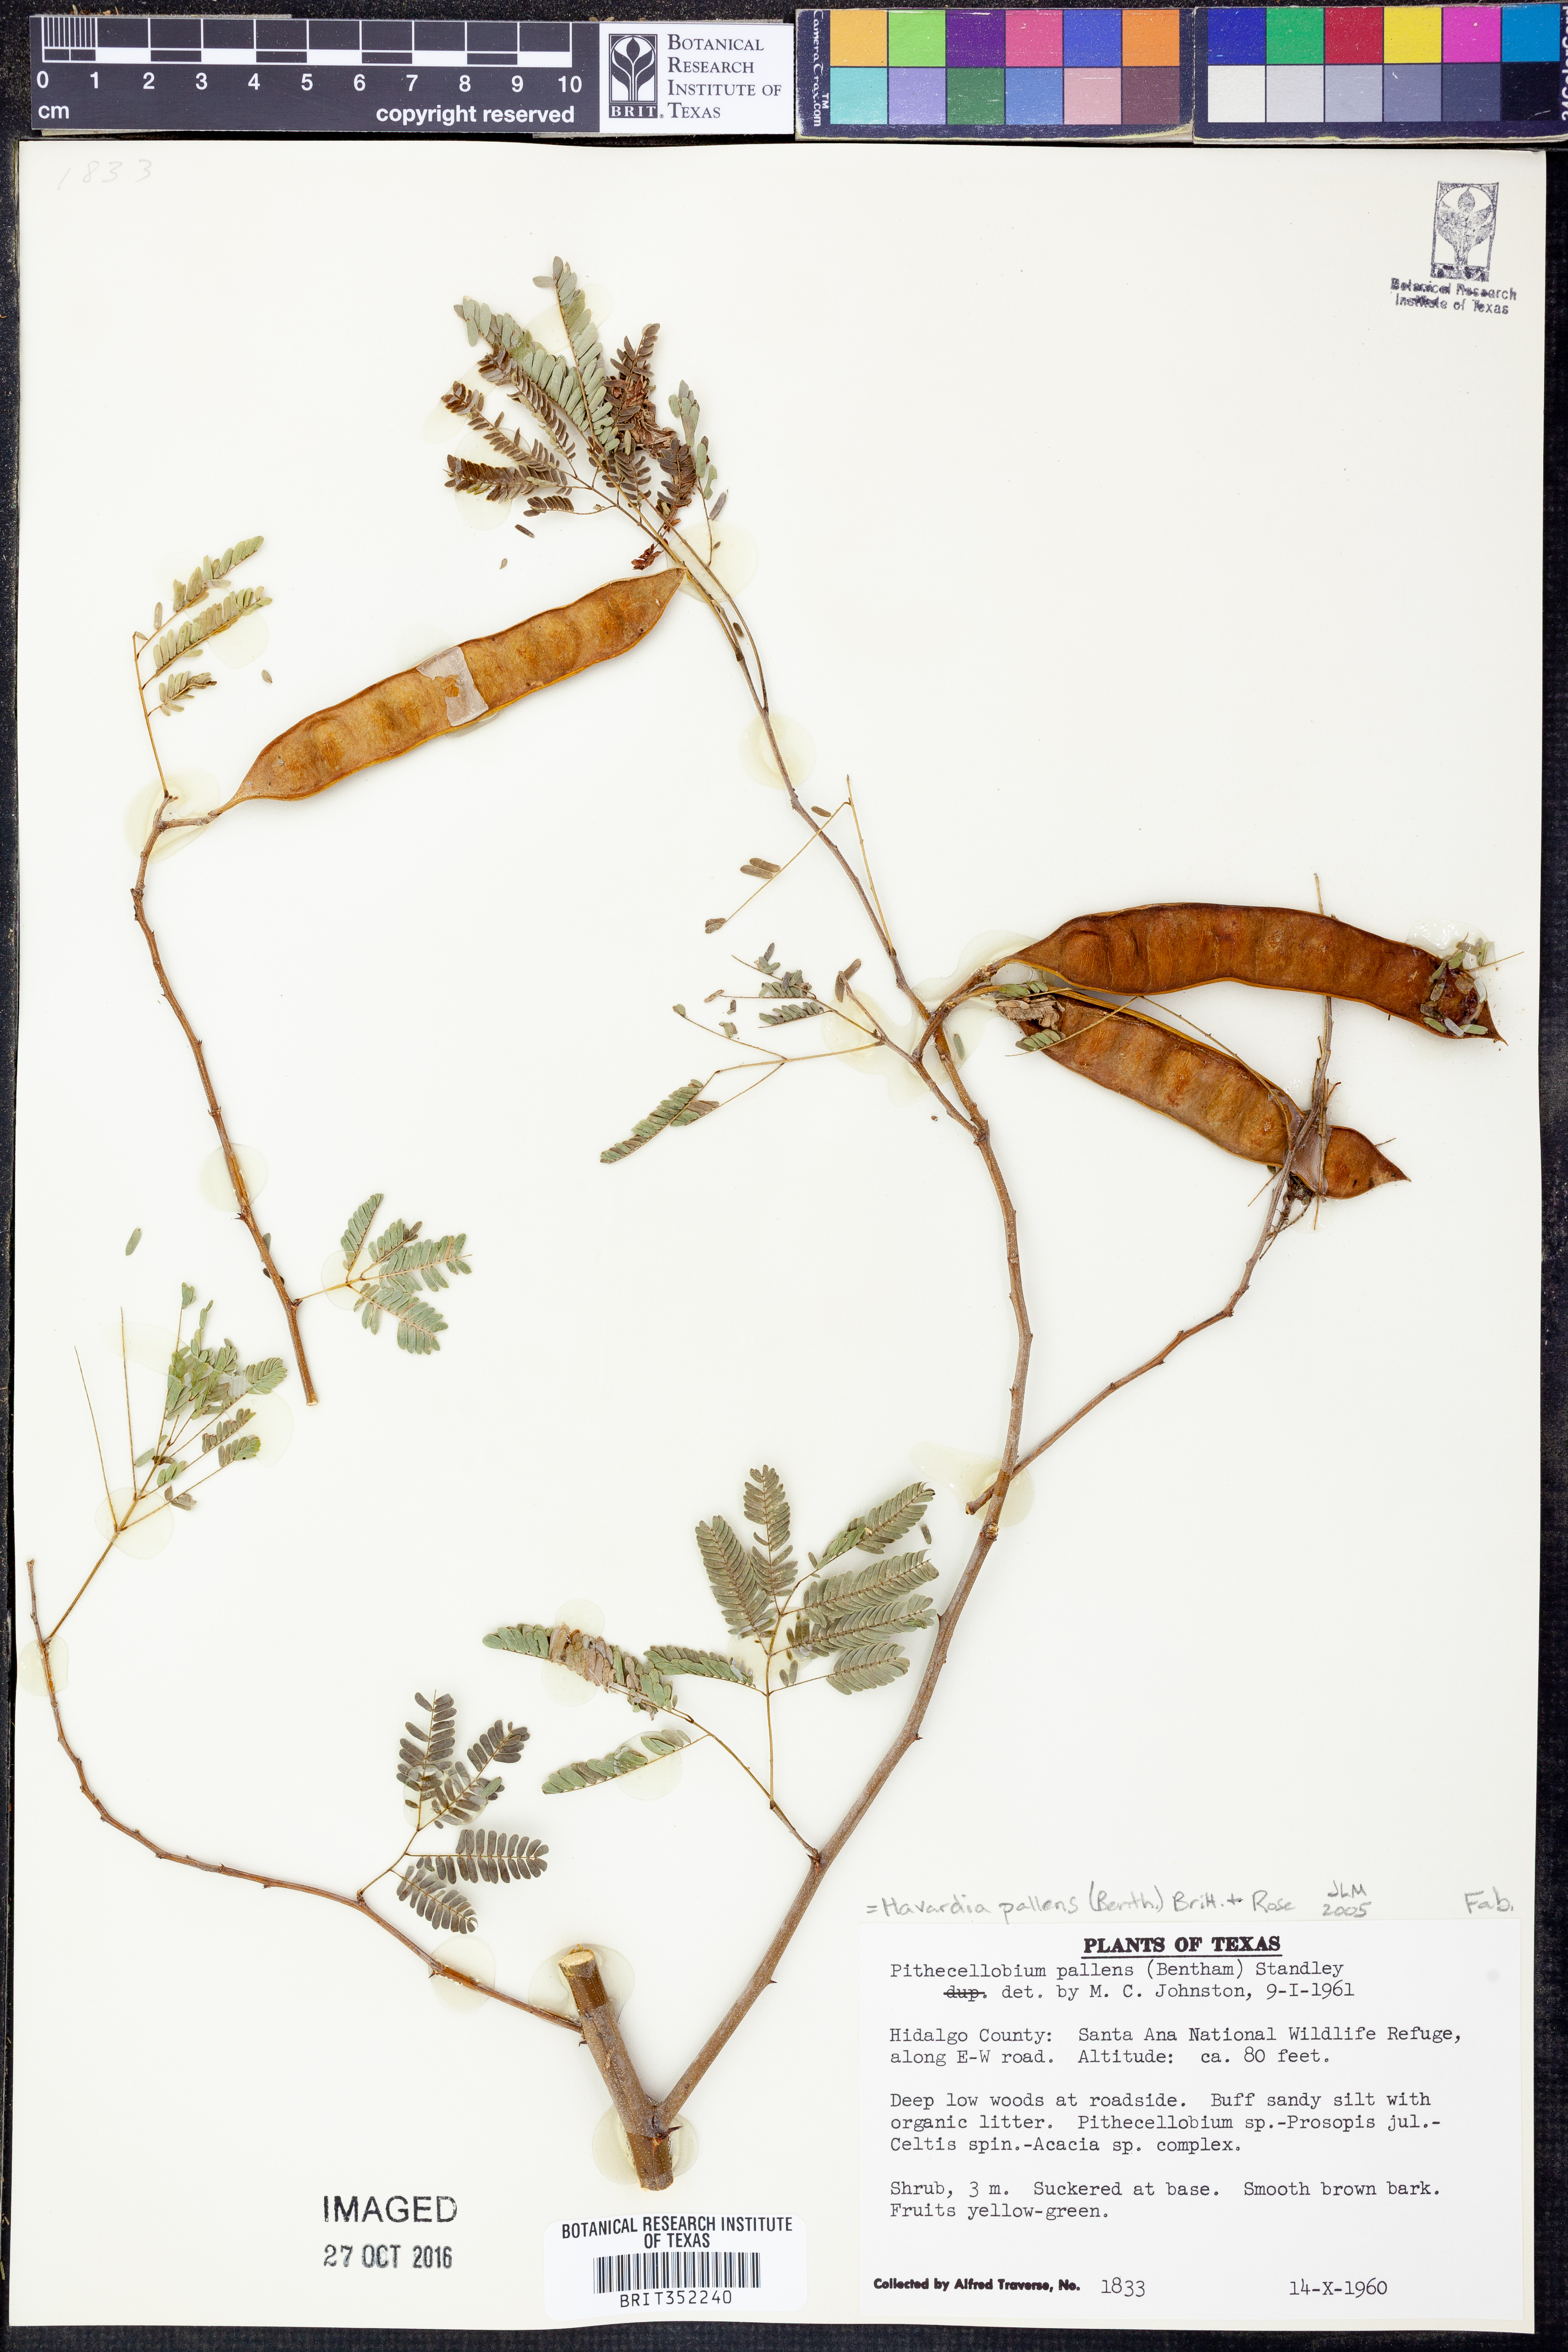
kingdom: Plantae
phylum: Tracheophyta
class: Magnoliopsida
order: Fabales
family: Fabaceae
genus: Havardia
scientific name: Havardia pallens
